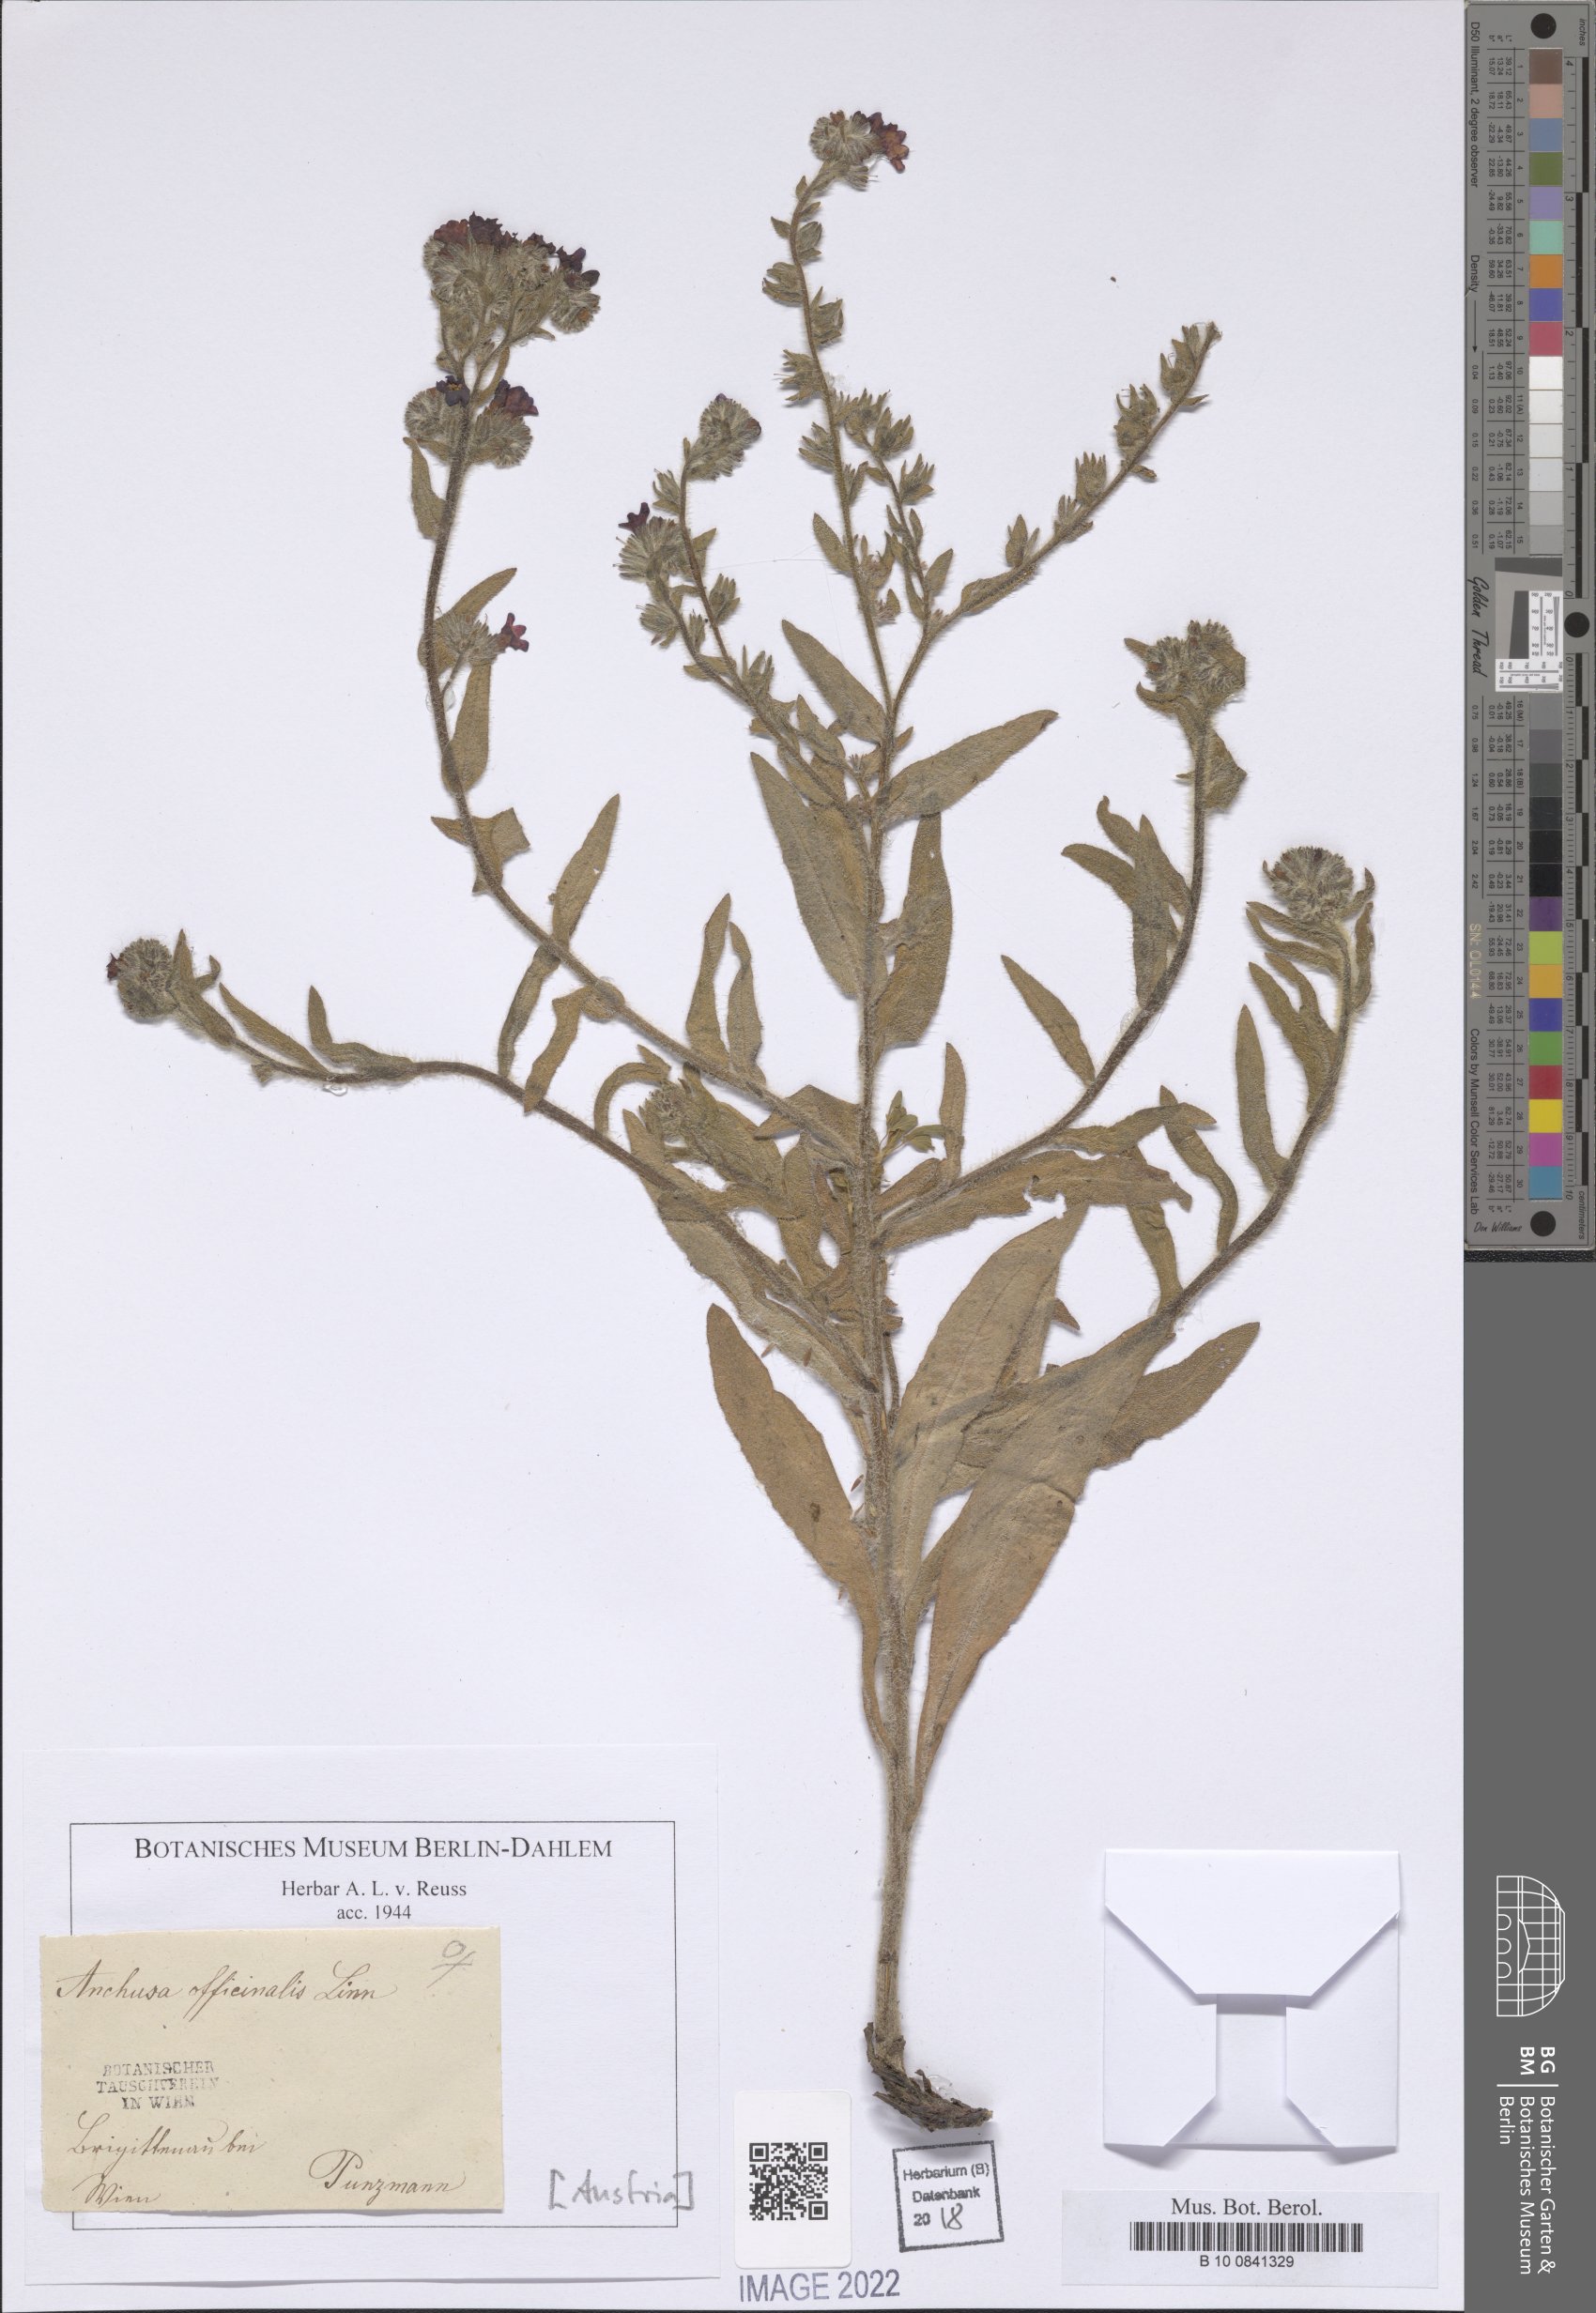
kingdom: Plantae
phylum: Tracheophyta
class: Magnoliopsida
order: Boraginales
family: Boraginaceae
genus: Anchusa
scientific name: Anchusa officinalis
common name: Alkanet
